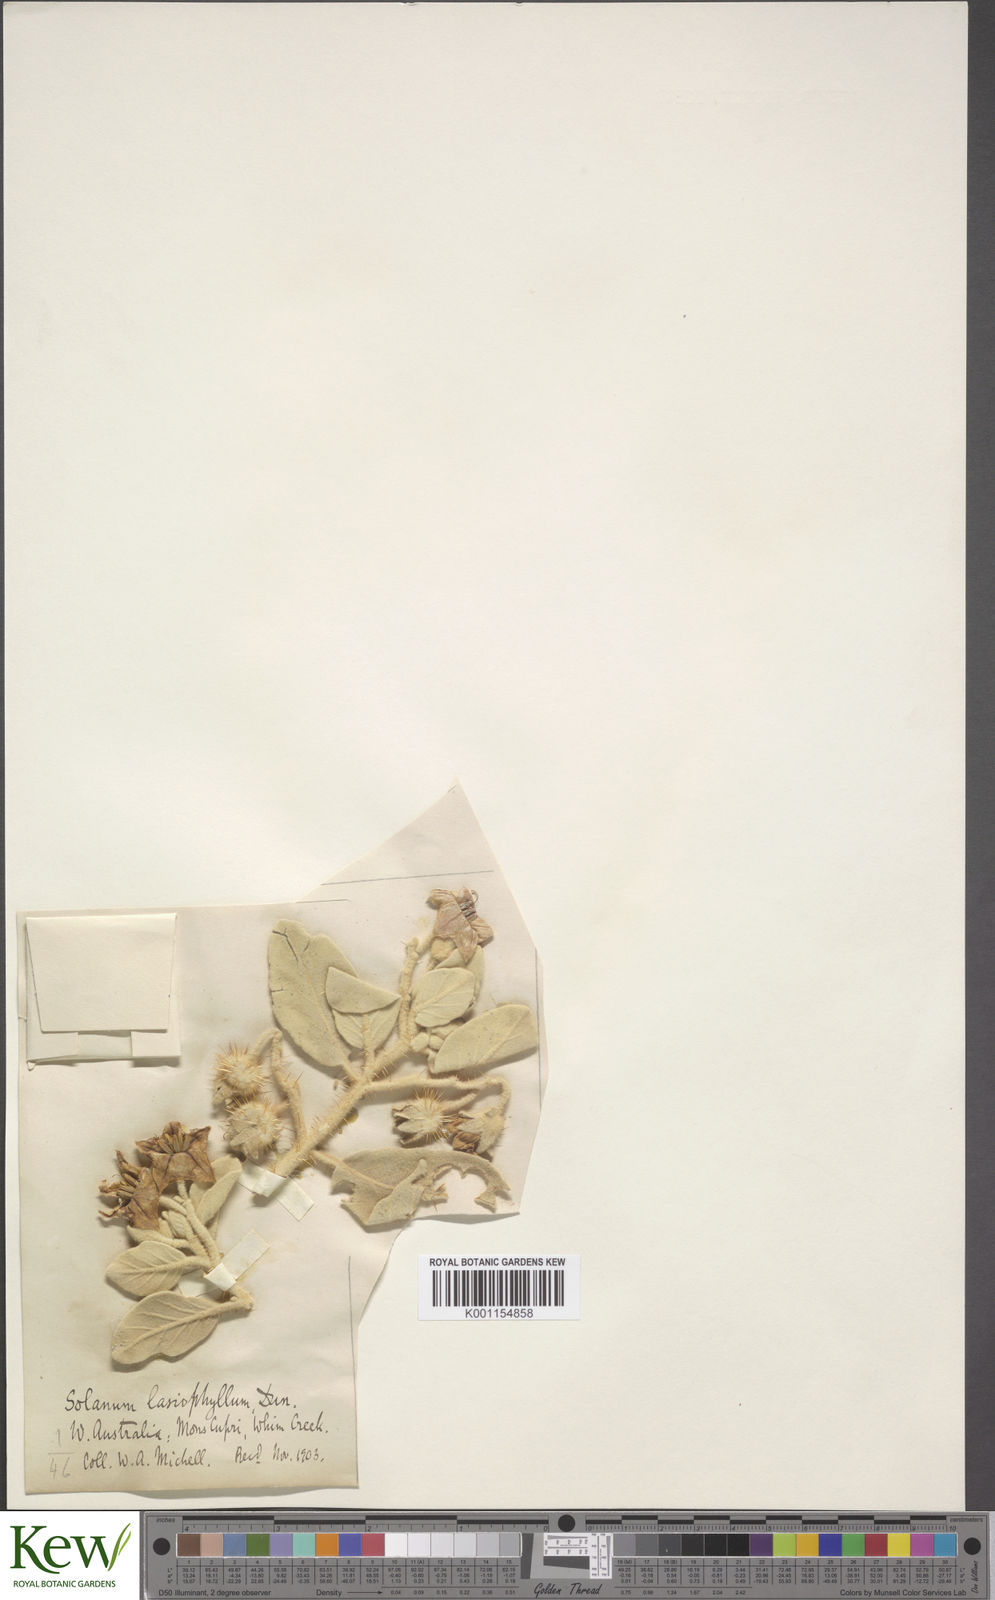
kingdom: Plantae
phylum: Tracheophyta
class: Magnoliopsida
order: Solanales
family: Solanaceae
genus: Solanum
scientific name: Solanum lasiophyllum
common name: Flannelbush
